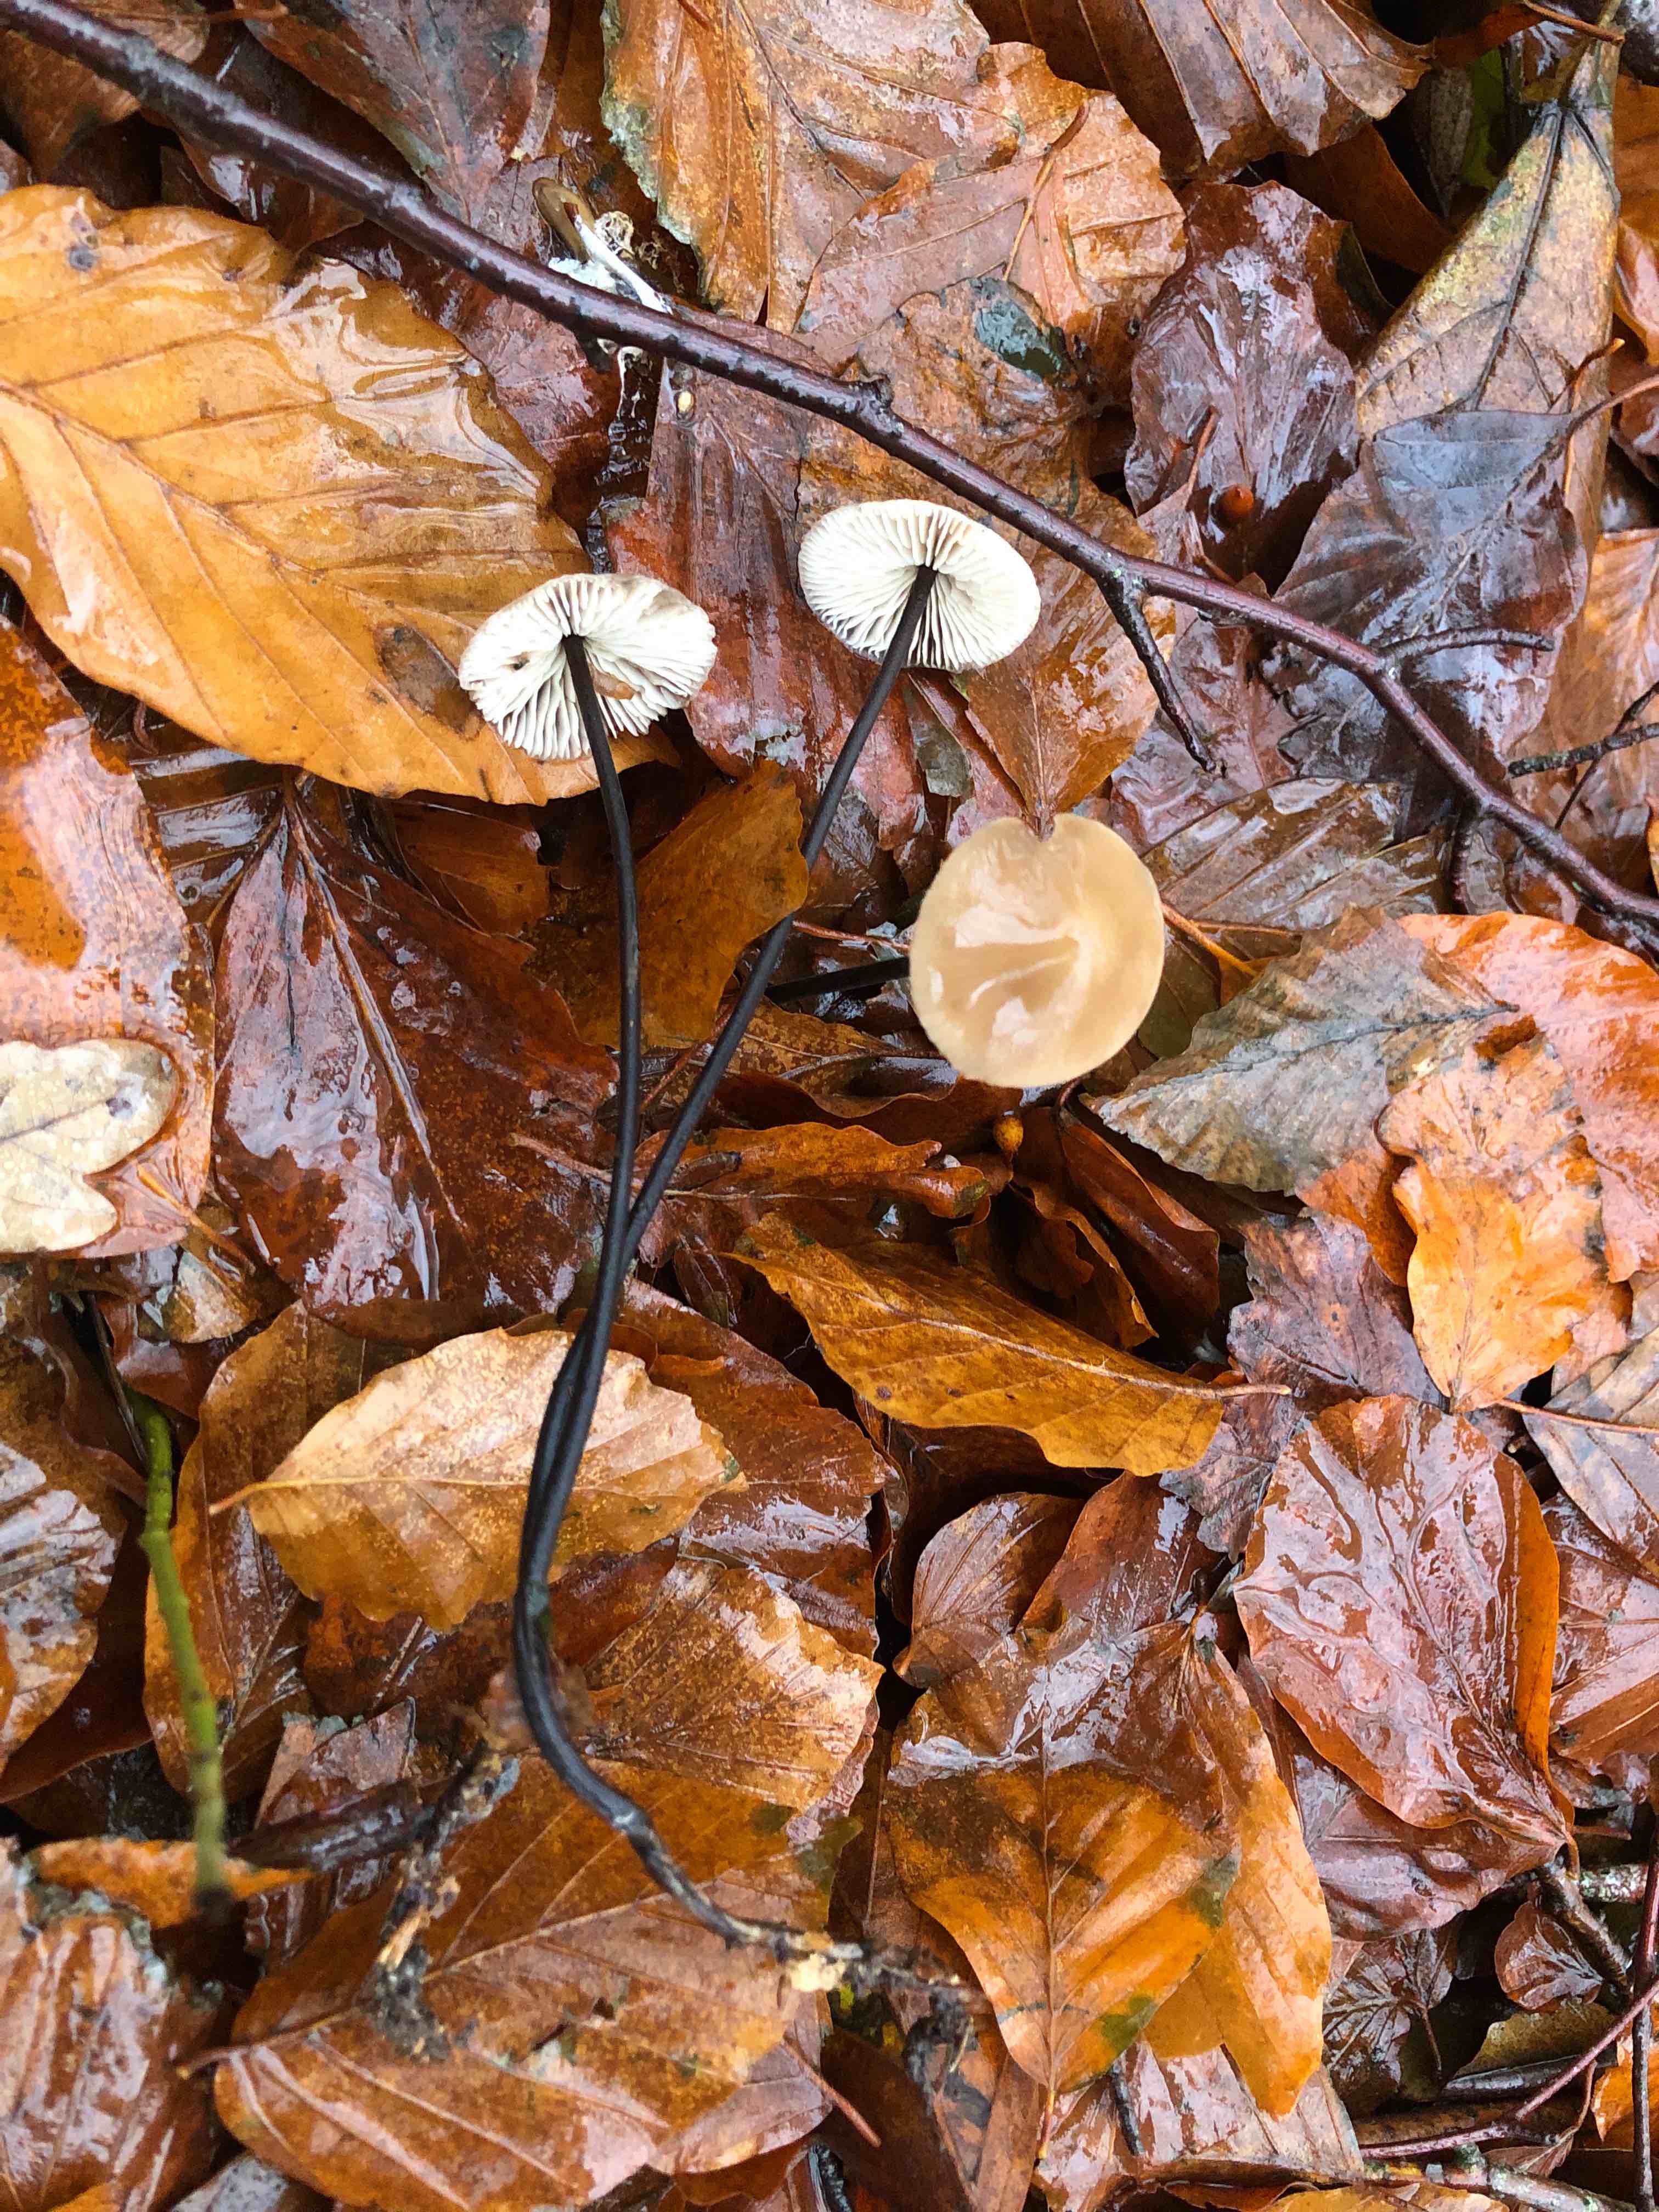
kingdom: Fungi
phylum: Basidiomycota
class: Agaricomycetes
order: Agaricales
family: Omphalotaceae
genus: Mycetinis
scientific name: Mycetinis alliaceus
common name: stor løghat
